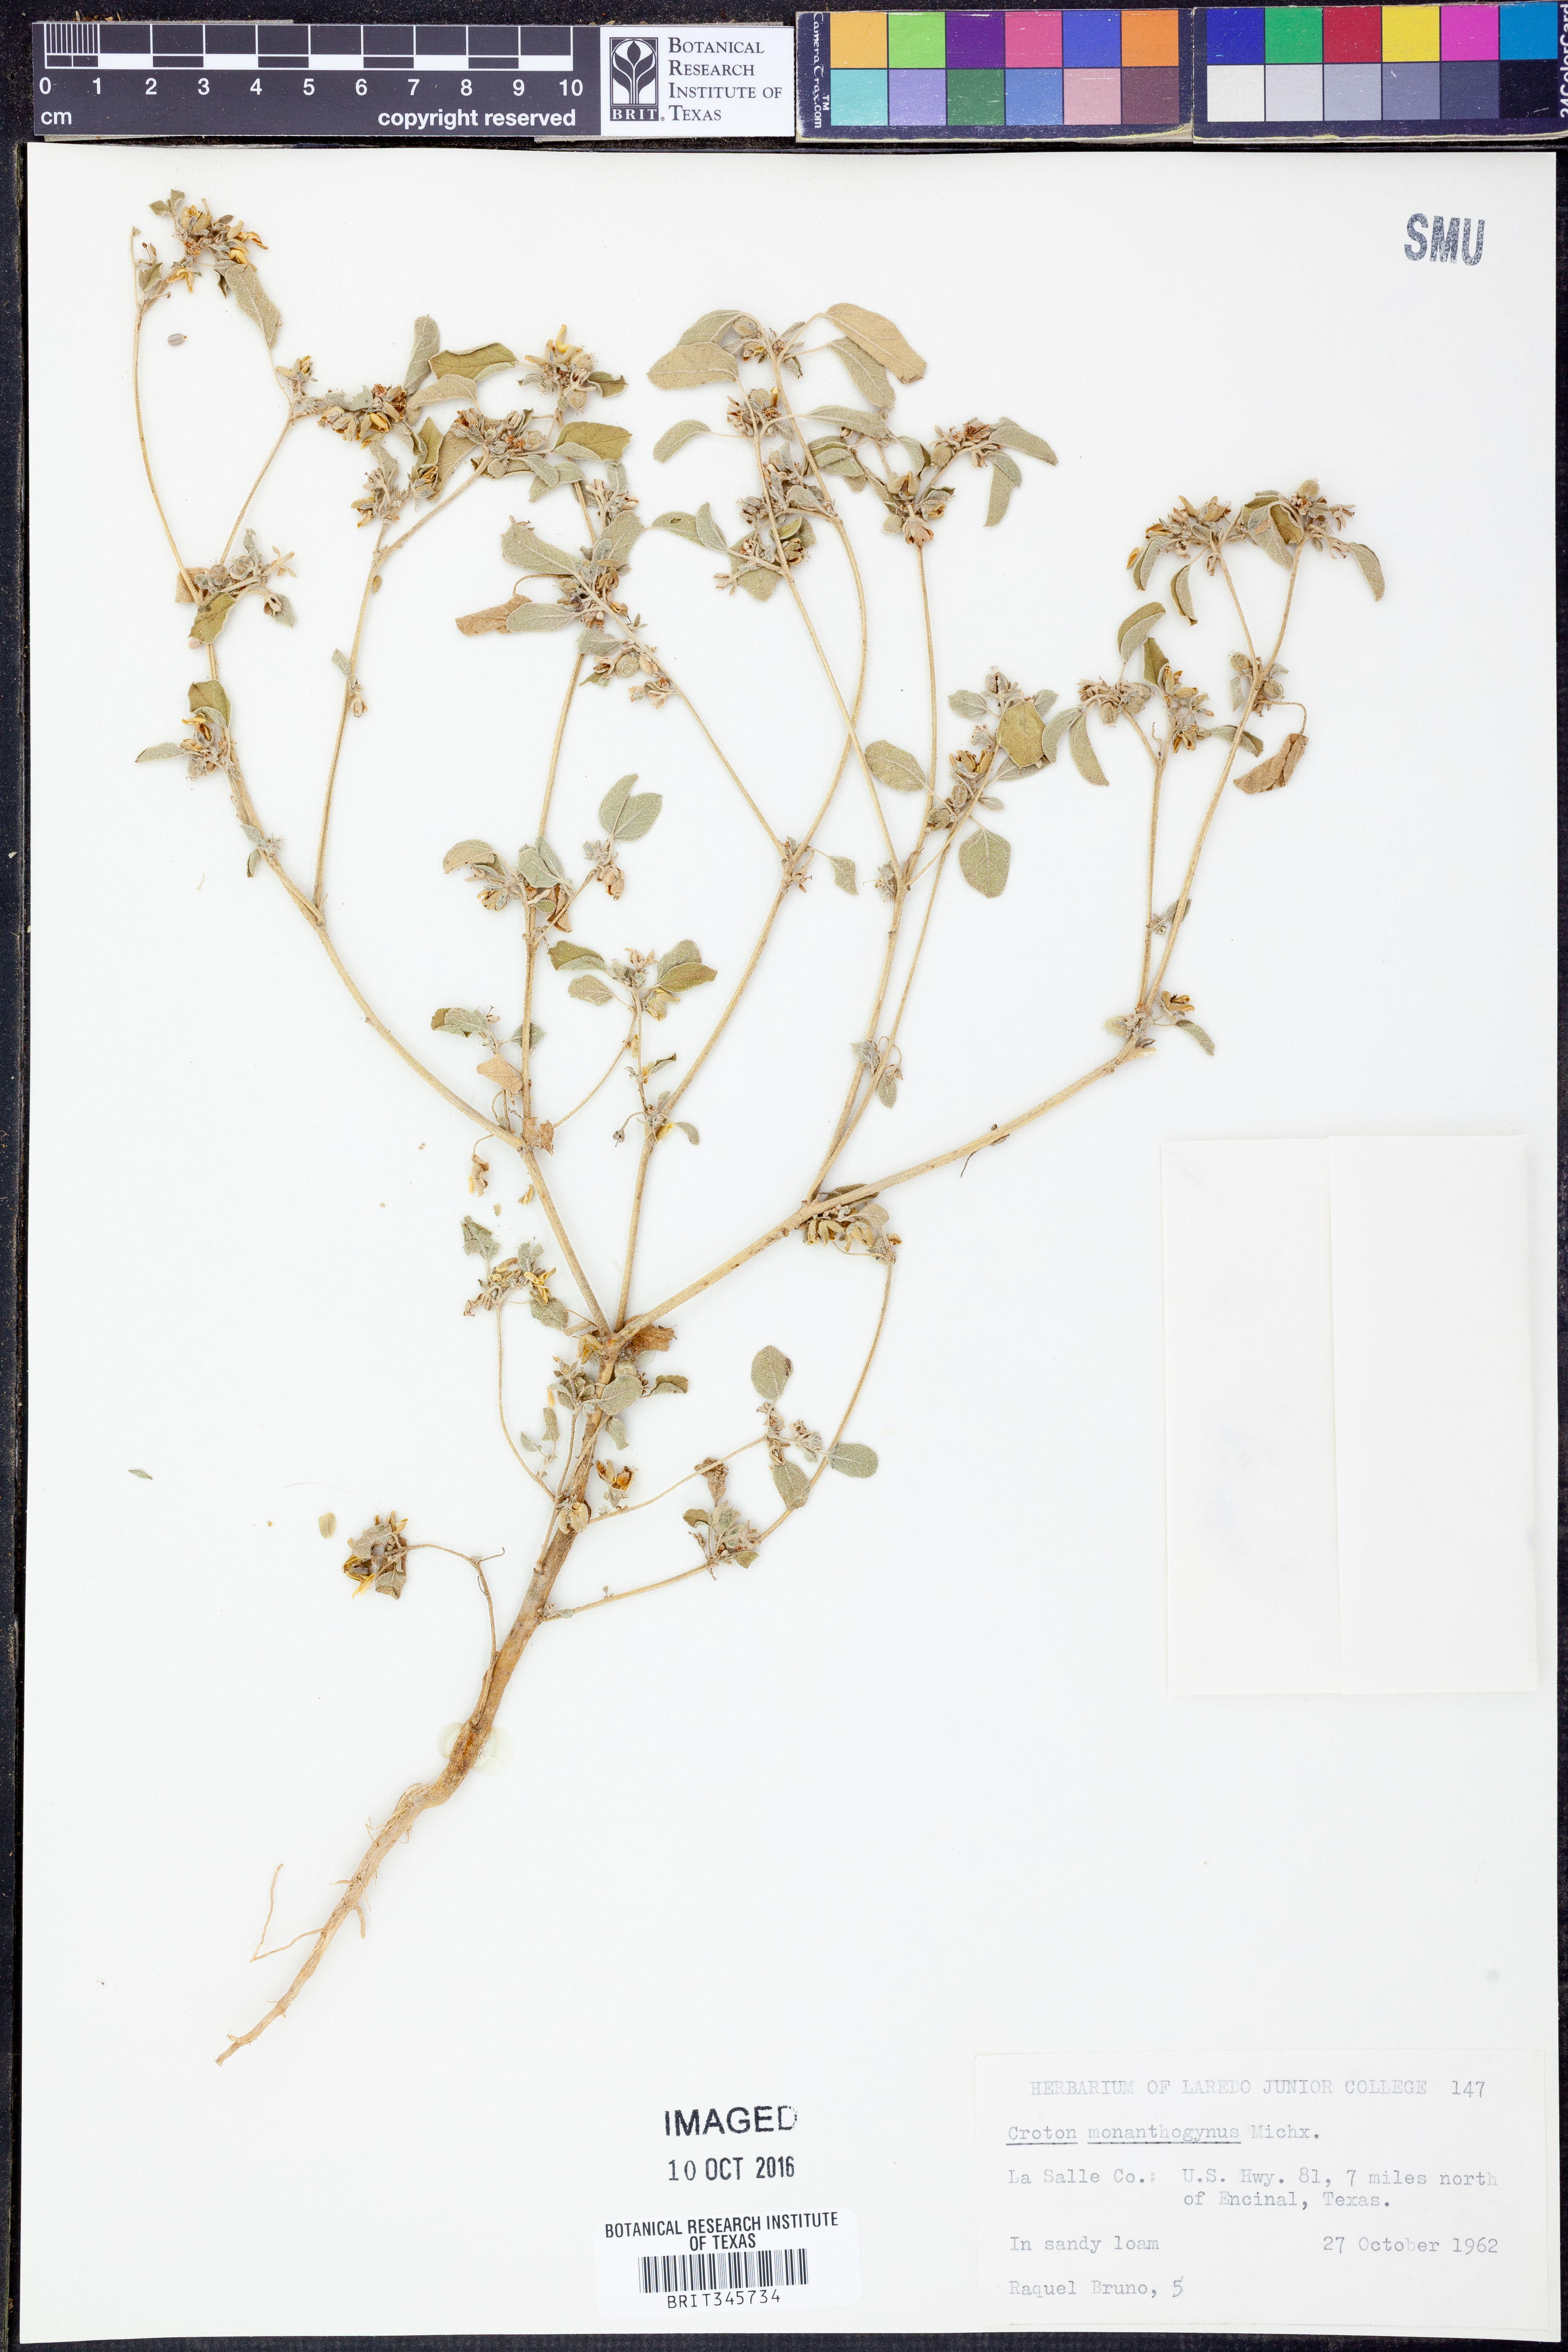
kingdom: Plantae
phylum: Tracheophyta
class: Magnoliopsida
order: Malpighiales
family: Euphorbiaceae
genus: Croton
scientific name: Croton monanthogynus
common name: One-seed croton
